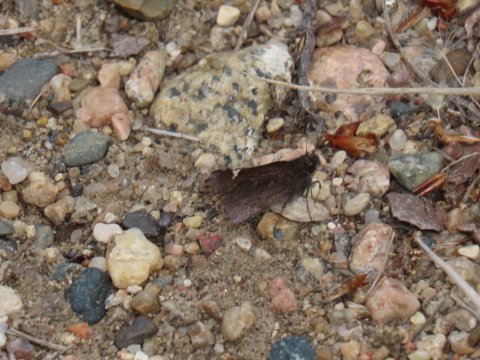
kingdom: Animalia
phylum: Arthropoda
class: Insecta
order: Lepidoptera
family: Hesperiidae
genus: Mastor
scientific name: Mastor vialis
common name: Common Roadside-Skipper
